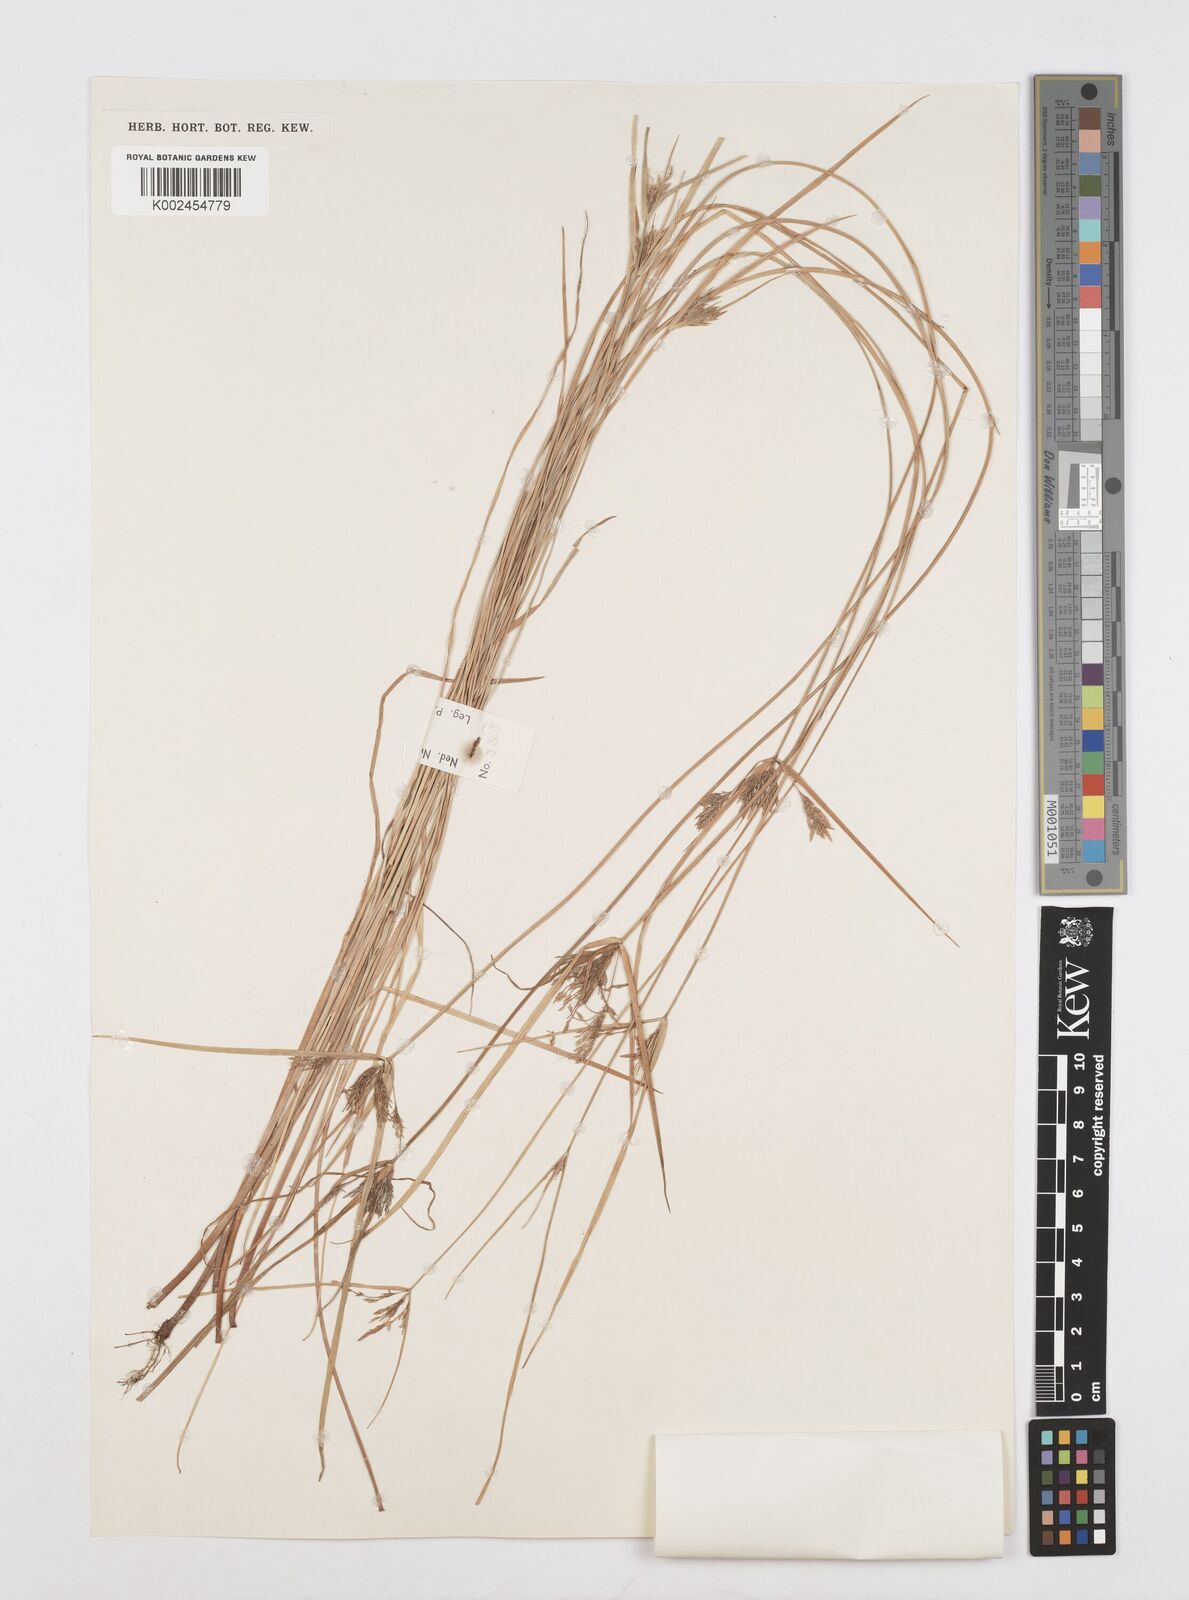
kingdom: Plantae
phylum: Tracheophyta
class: Liliopsida
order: Poales
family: Cyperaceae
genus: Cyperus
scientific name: Cyperus polystachyos
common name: Bunchy flat sedge
